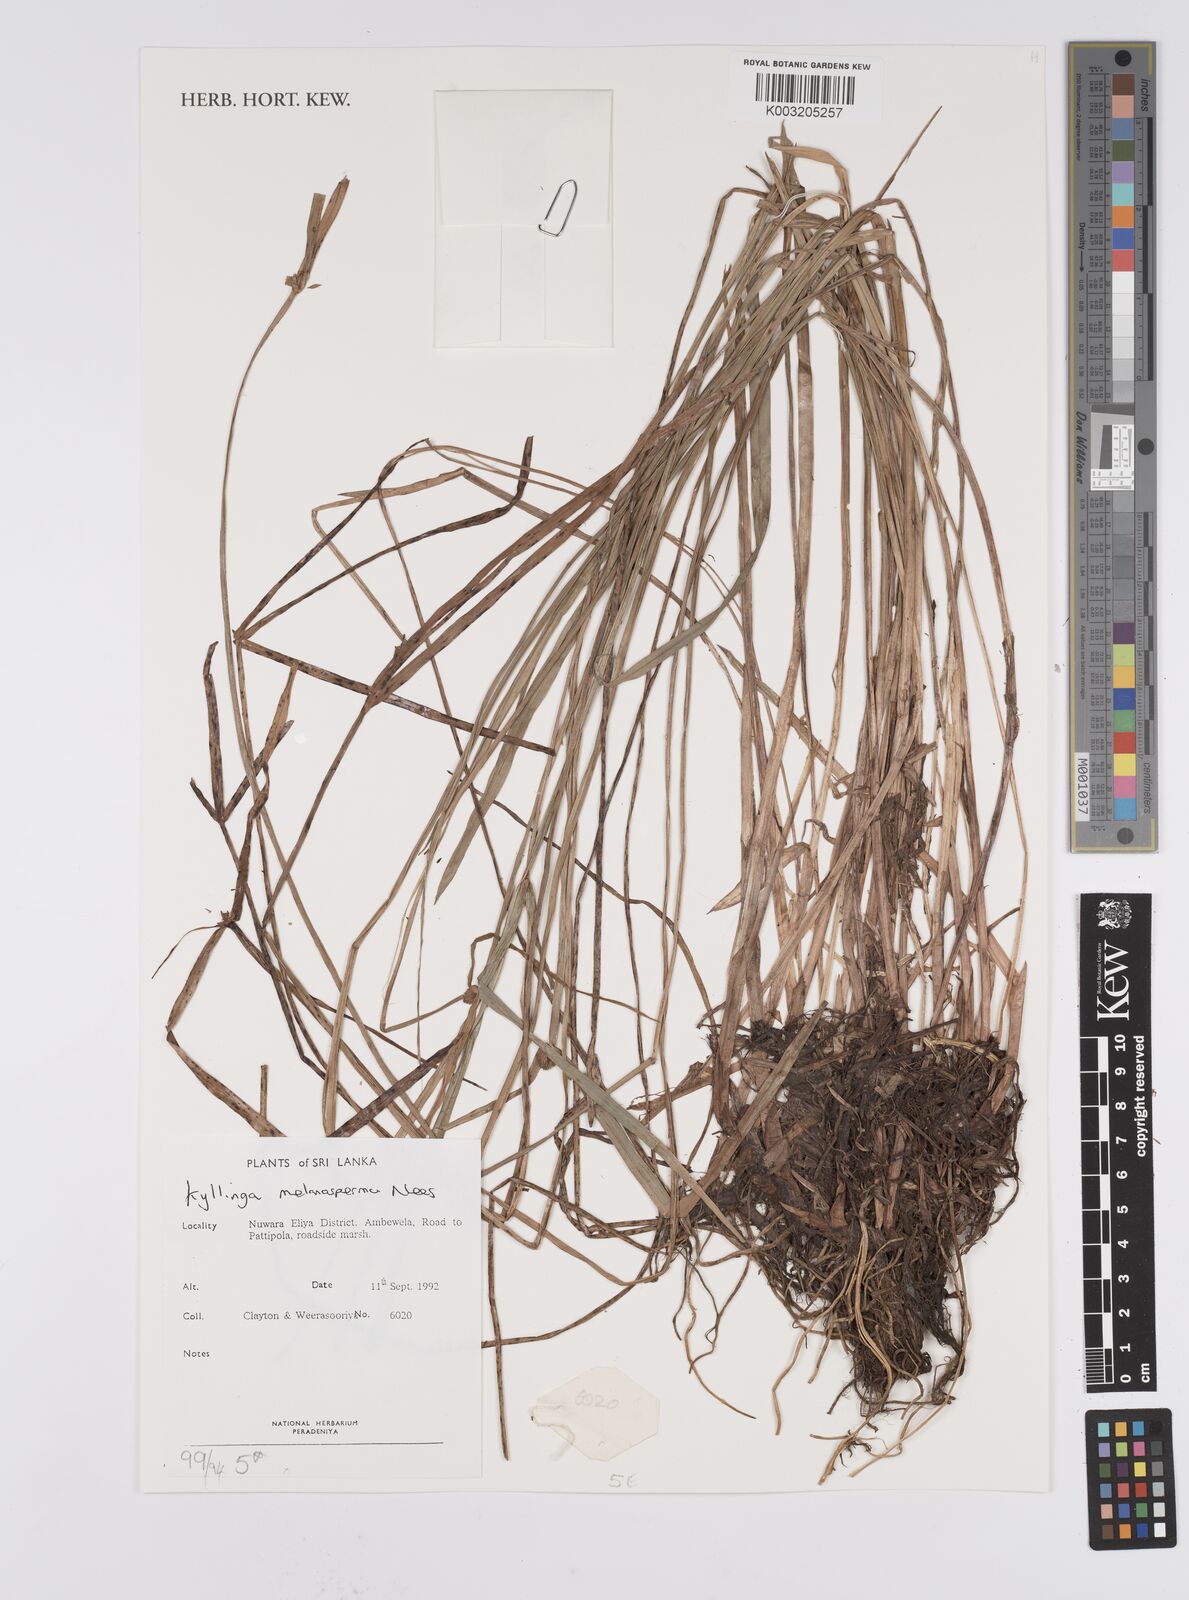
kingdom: Plantae
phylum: Tracheophyta
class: Liliopsida
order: Poales
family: Cyperaceae
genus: Cyperus
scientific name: Cyperus melanospermus
